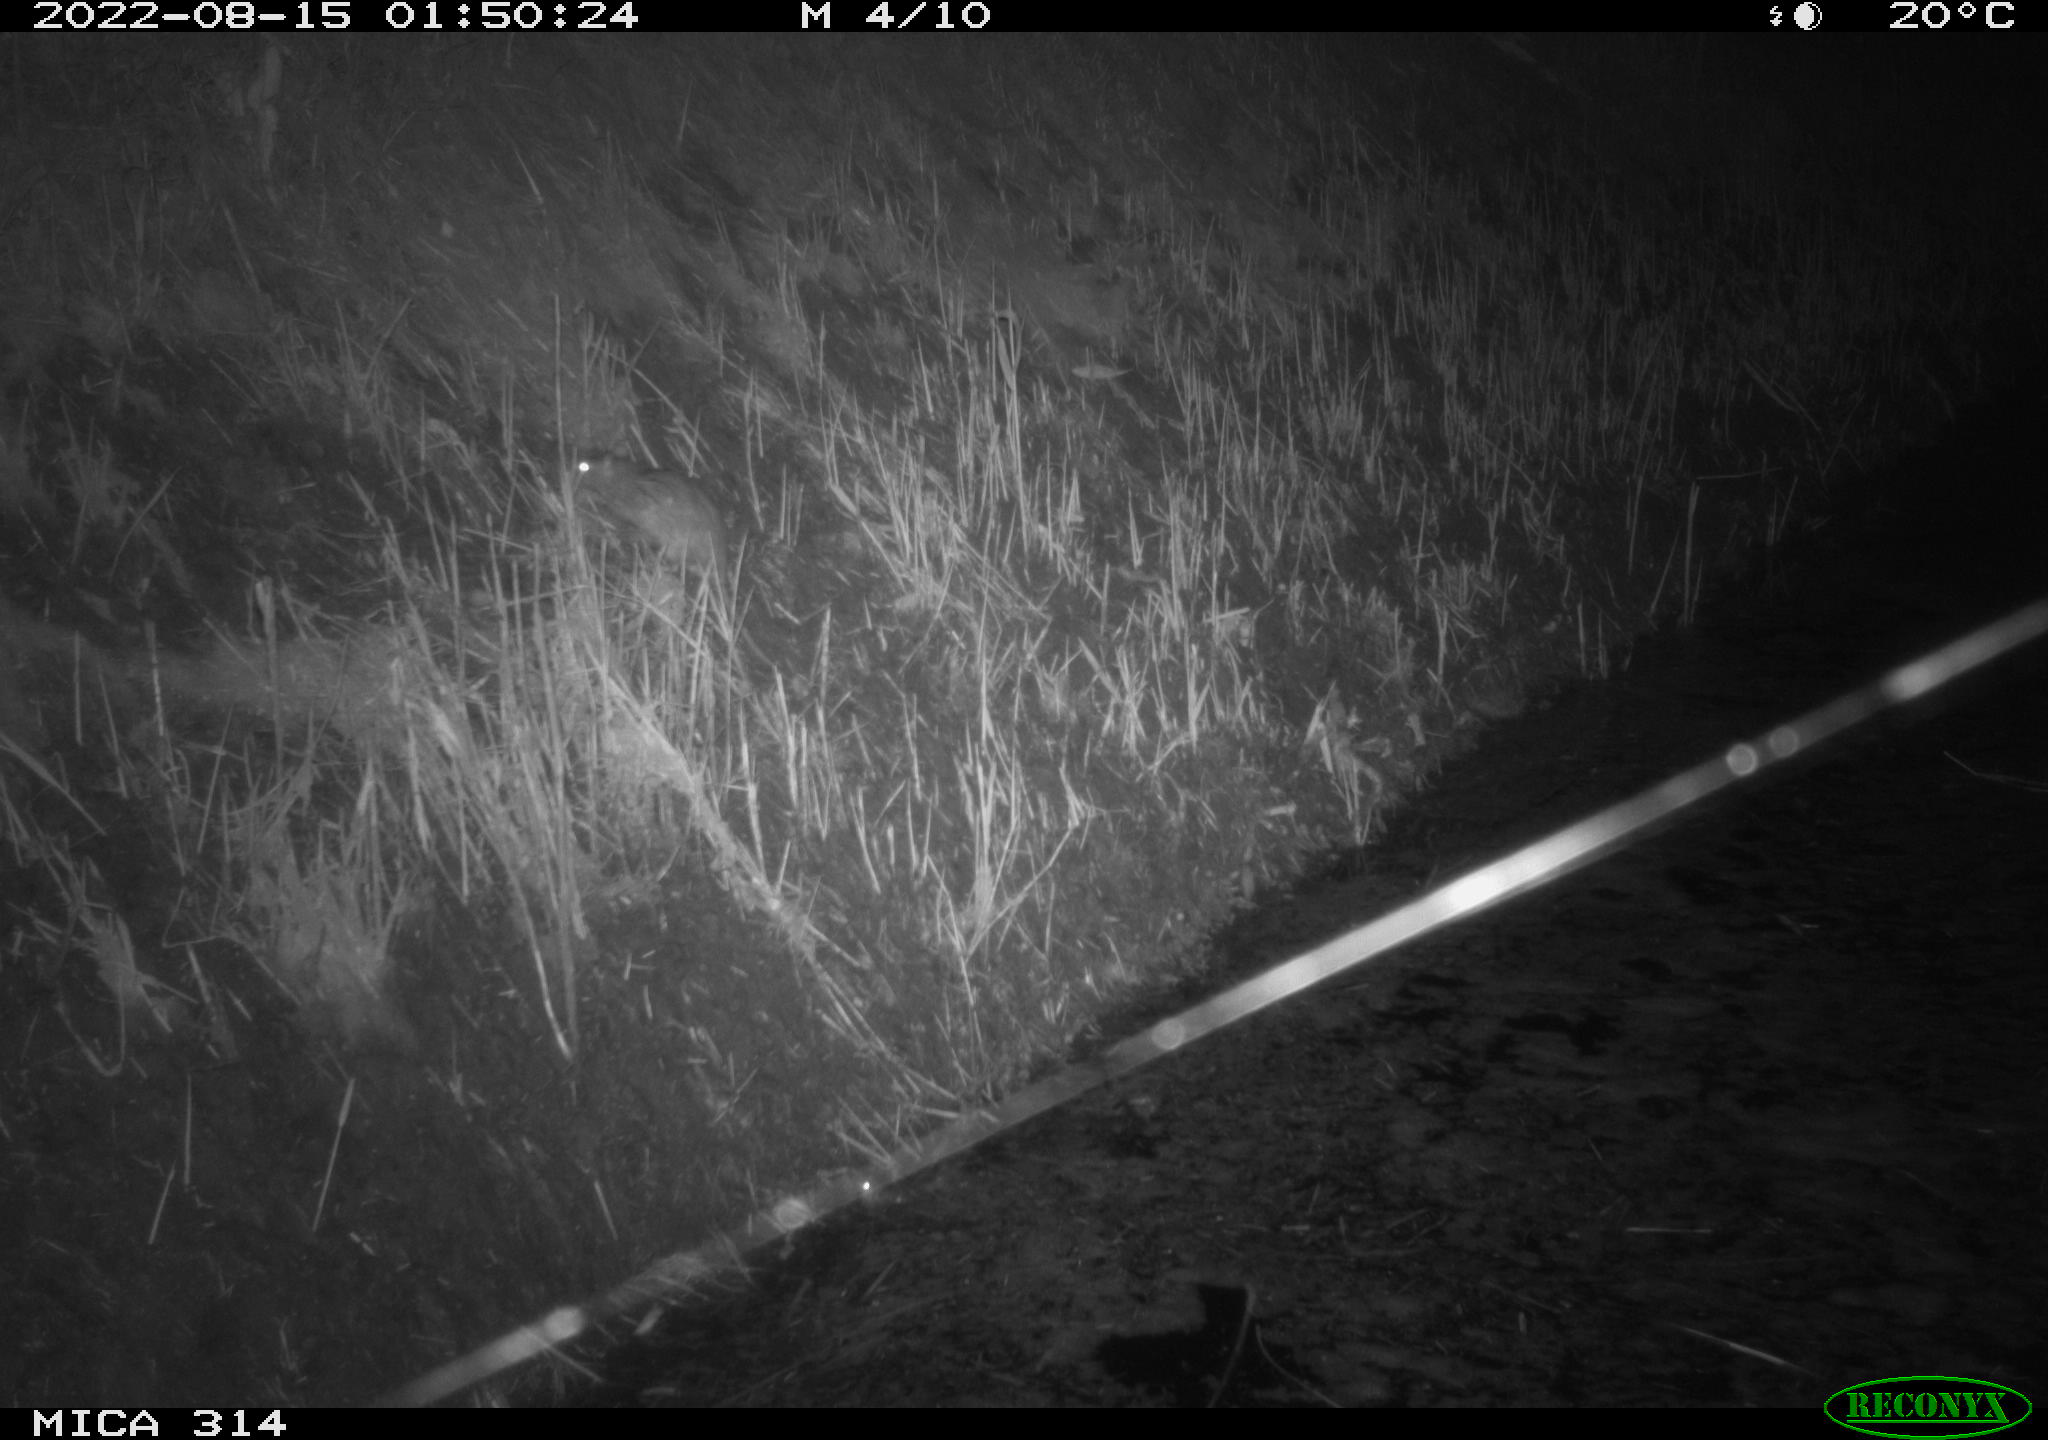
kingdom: Animalia
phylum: Chordata
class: Mammalia
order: Rodentia
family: Muridae
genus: Rattus
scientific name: Rattus norvegicus
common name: Brown rat
